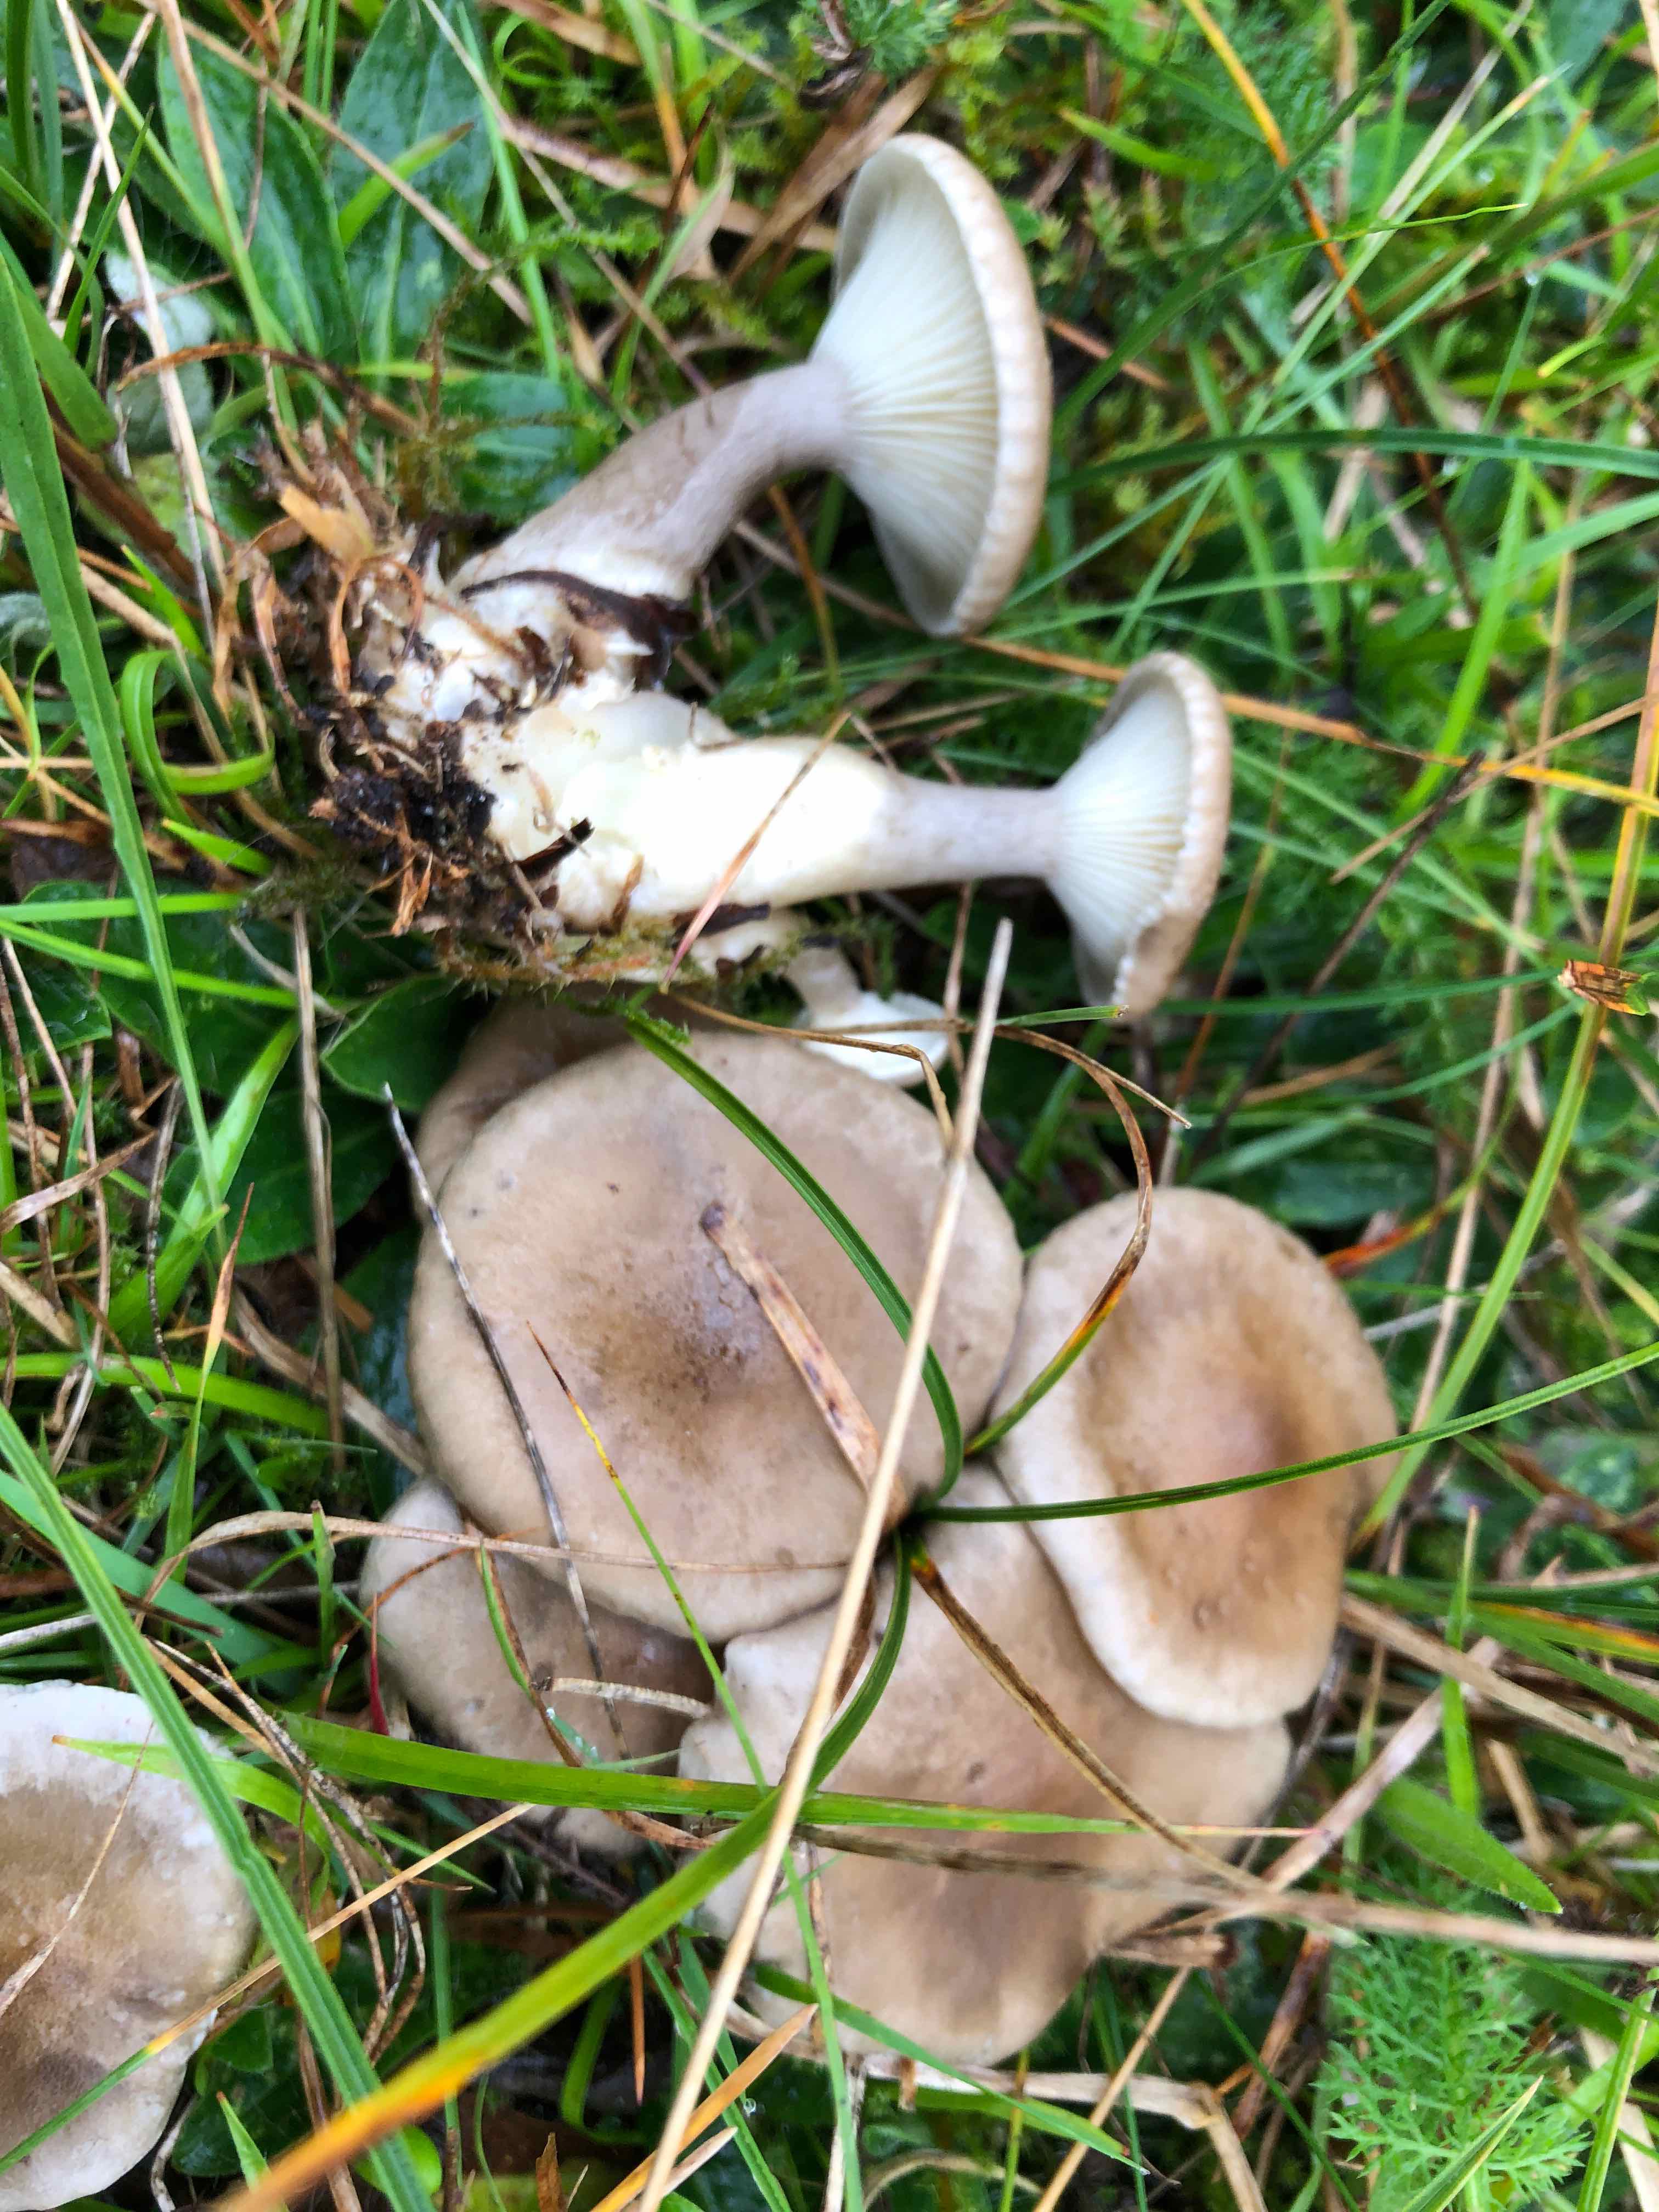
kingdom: Fungi
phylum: Basidiomycota
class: Agaricomycetes
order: Agaricales
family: Hygrophoraceae
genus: Ampulloclitocybe
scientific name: Ampulloclitocybe clavipes
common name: køllefod
